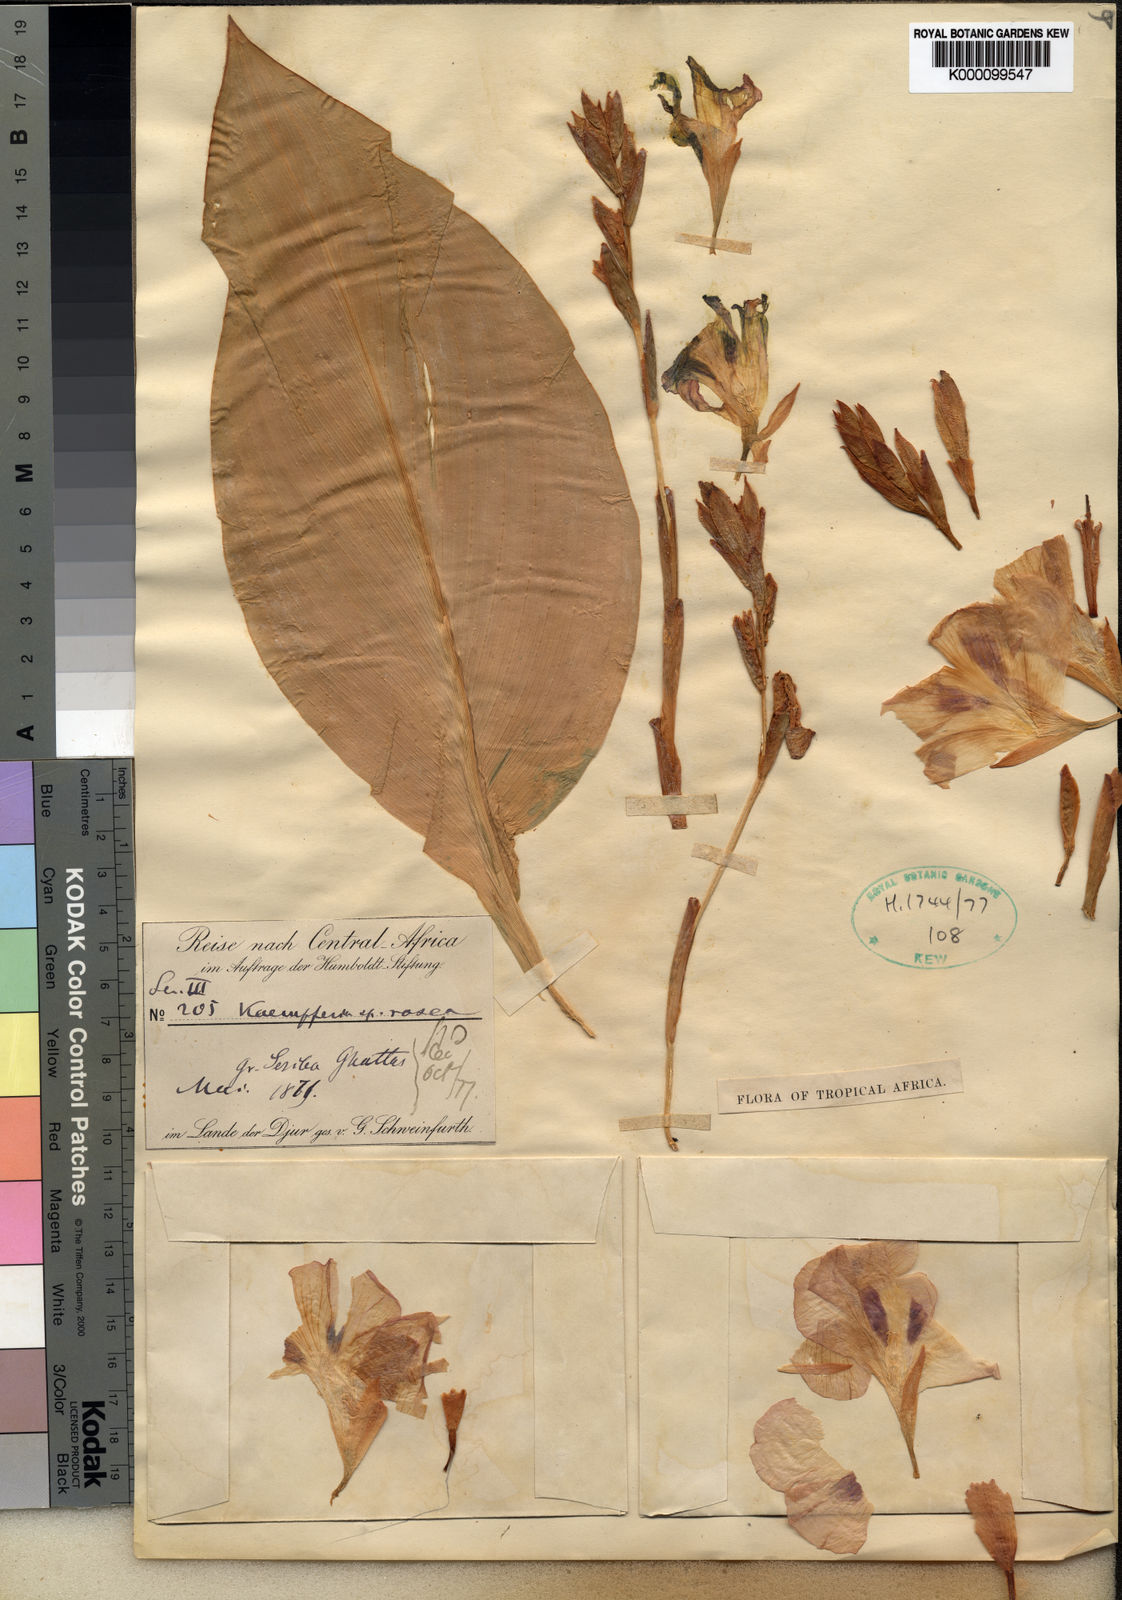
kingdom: Plantae
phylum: Tracheophyta
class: Liliopsida
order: Zingiberales
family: Zingiberaceae
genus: Kaempferia
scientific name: Kaempferia
